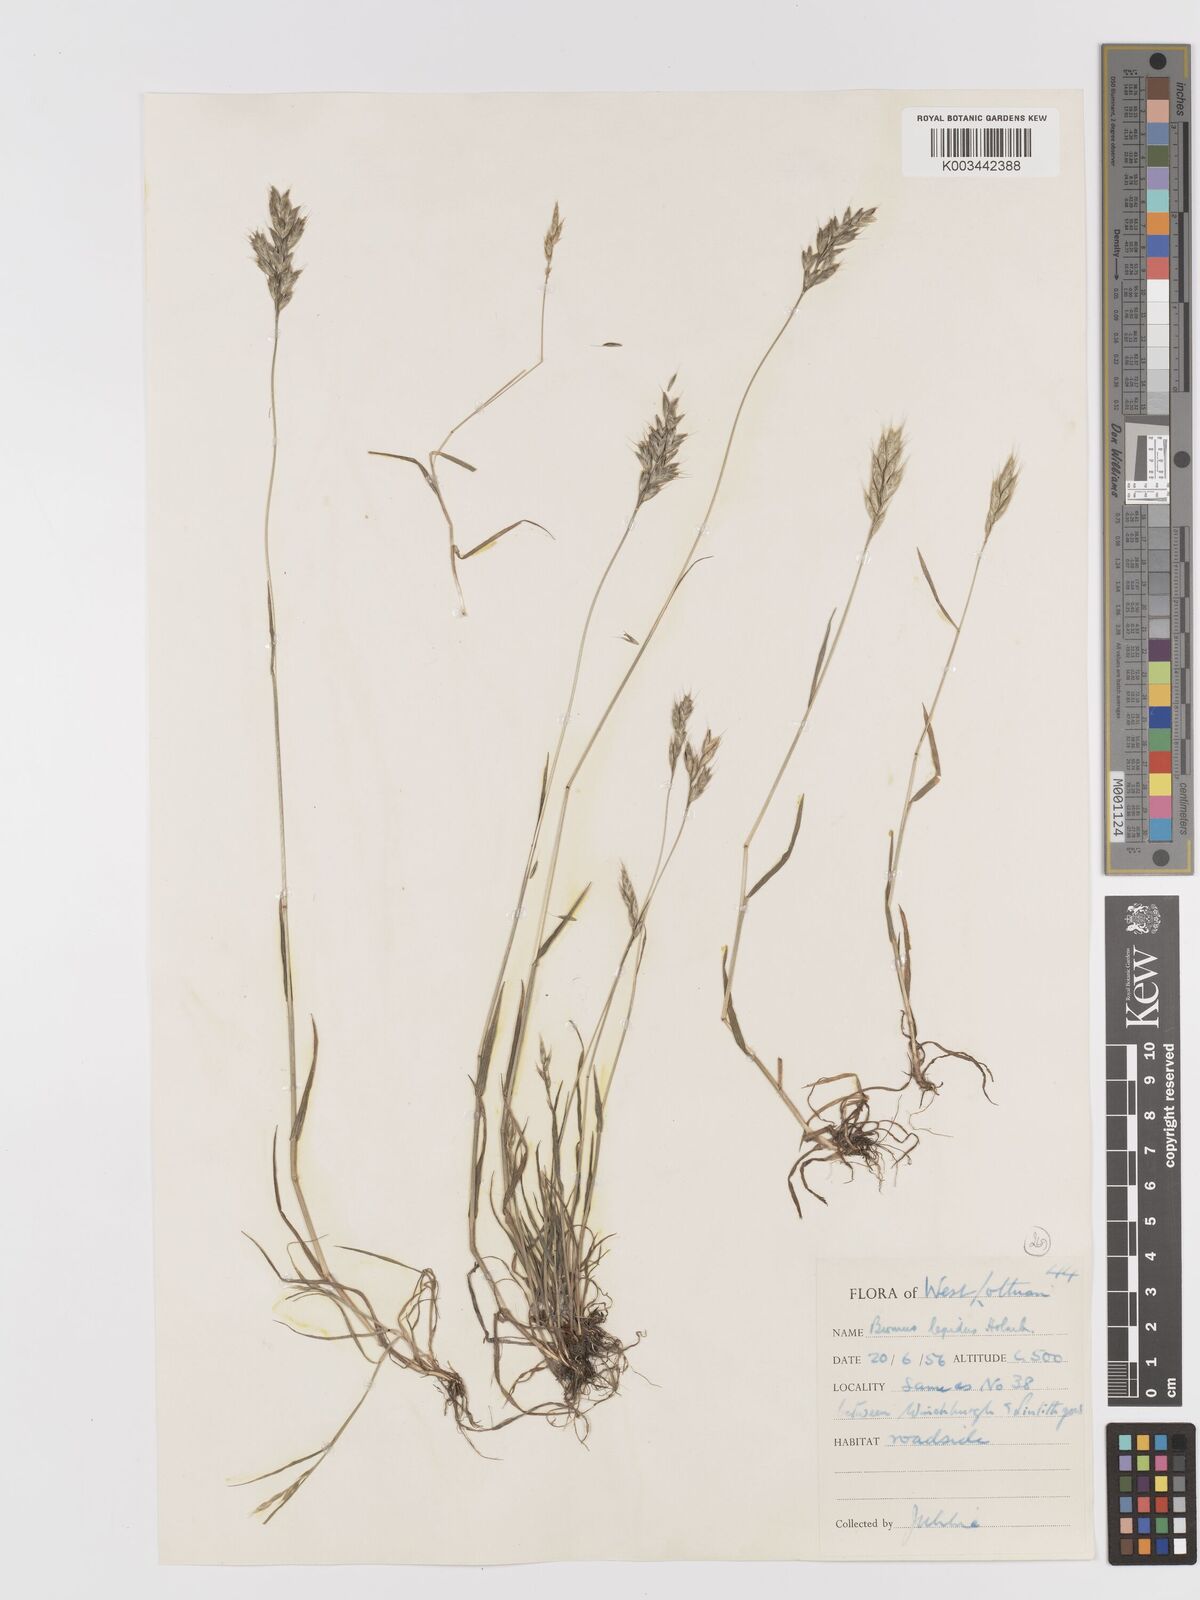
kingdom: Plantae
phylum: Tracheophyta
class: Liliopsida
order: Poales
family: Poaceae
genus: Bromus
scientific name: Bromus lepidus
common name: Slender soft-brome
